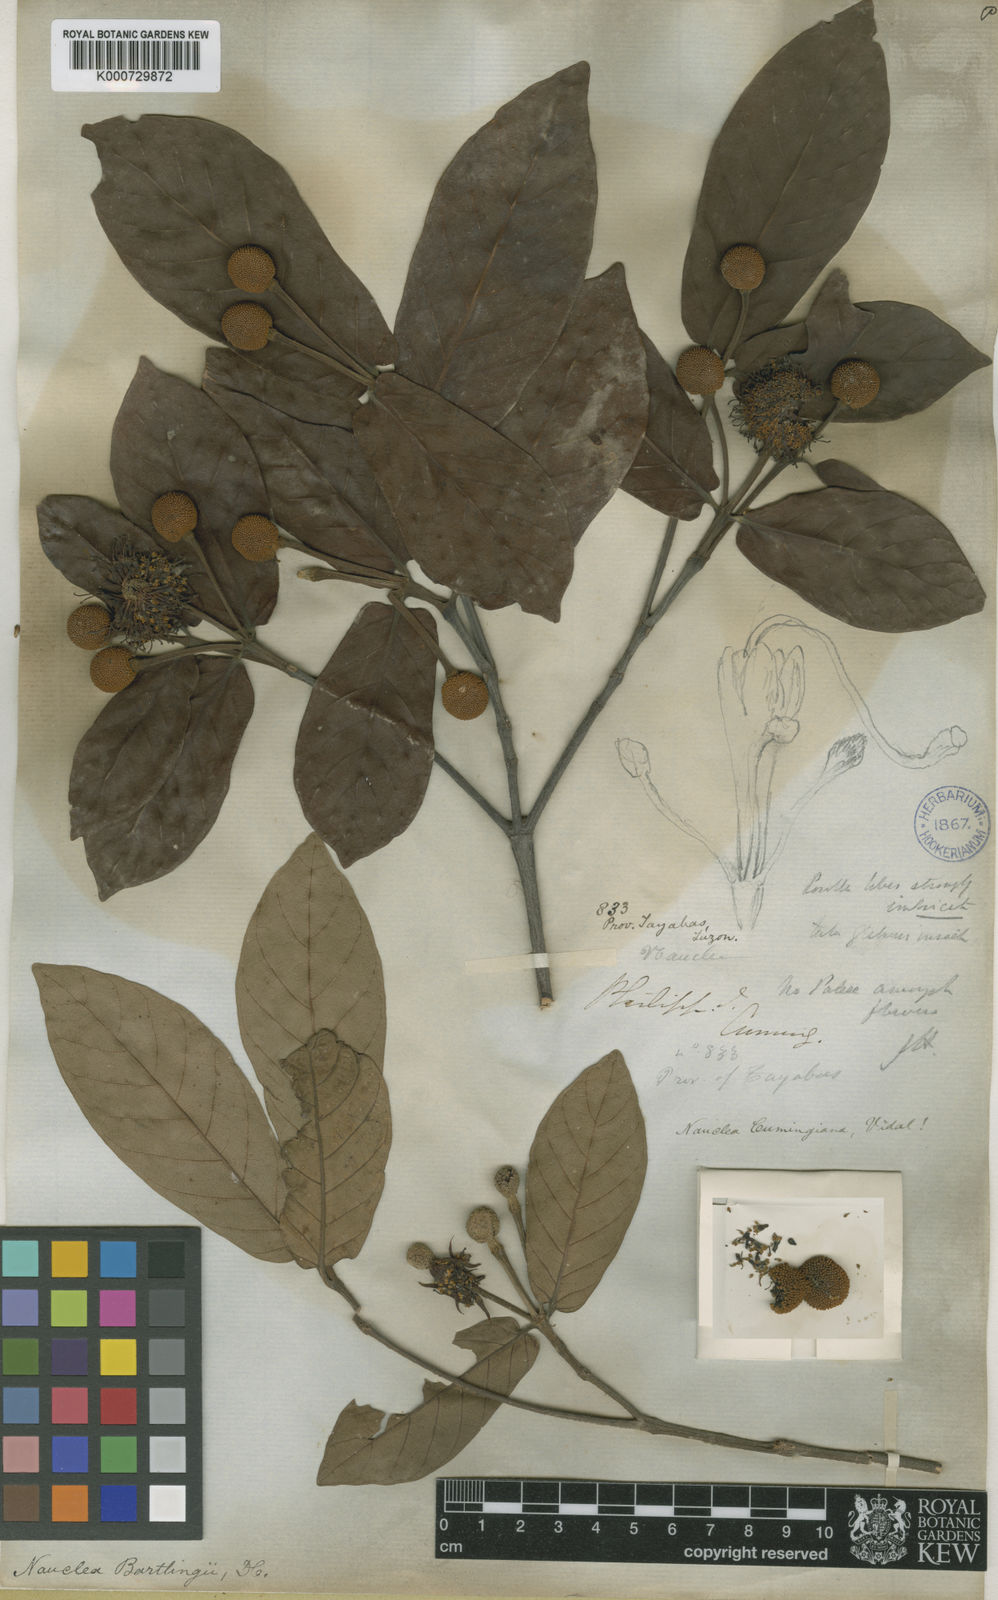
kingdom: Plantae
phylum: Tracheophyta
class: Magnoliopsida
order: Gentianales
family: Rubiaceae
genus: Neonauclea
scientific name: Neonauclea bartlingii
